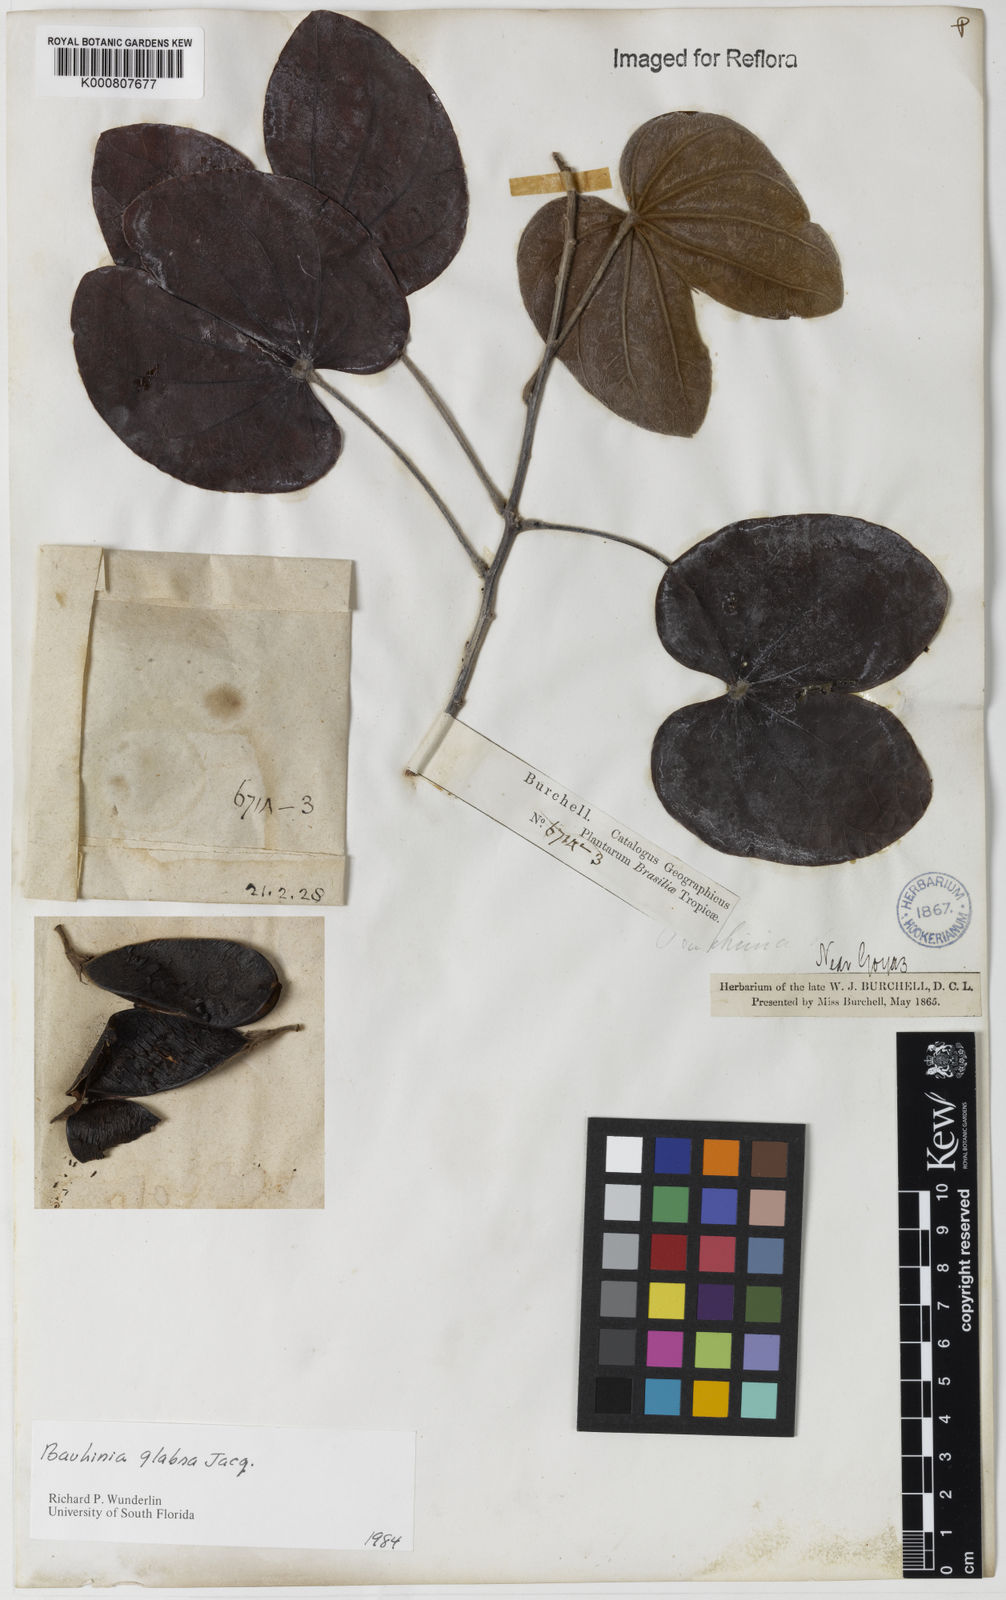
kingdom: Plantae
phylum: Tracheophyta
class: Magnoliopsida
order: Fabales
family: Fabaceae
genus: Schnella
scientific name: Schnella glabra
